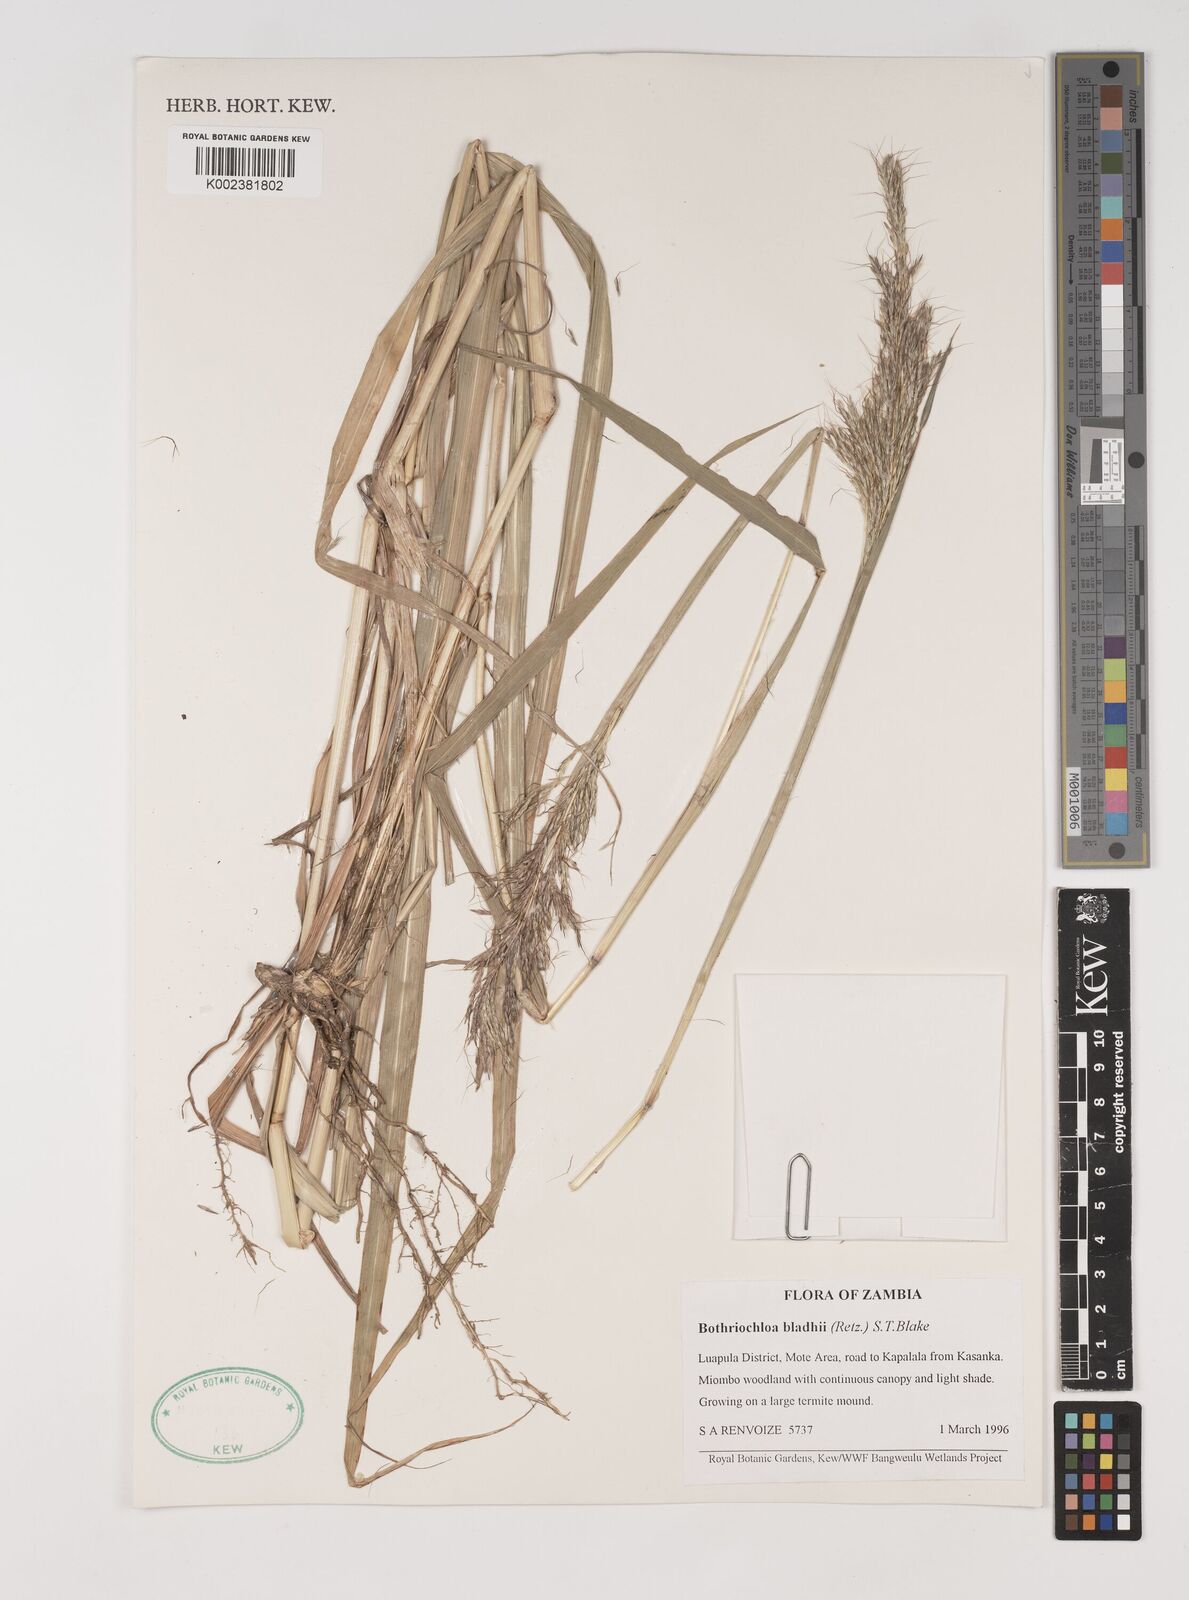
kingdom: Plantae
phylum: Tracheophyta
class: Liliopsida
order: Poales
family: Poaceae
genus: Bothriochloa
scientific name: Bothriochloa bladhii
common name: Caucasian bluestem
